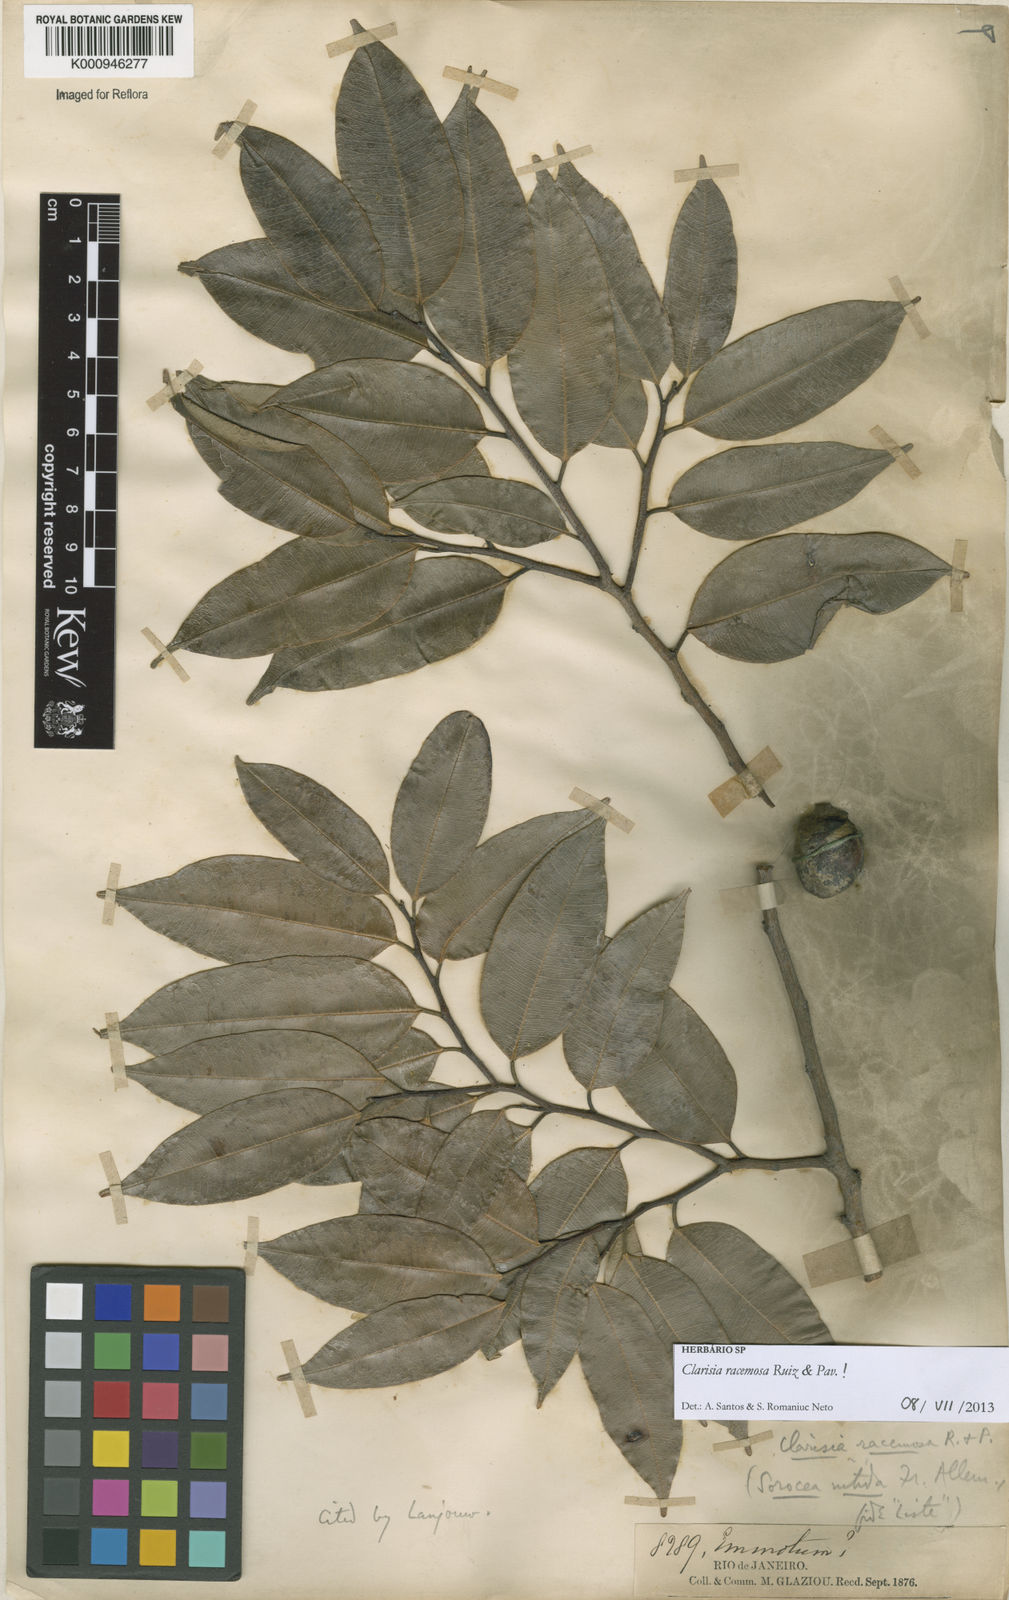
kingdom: Plantae
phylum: Tracheophyta
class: Magnoliopsida
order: Rosales
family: Moraceae
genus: Clarisia
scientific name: Clarisia racemosa
